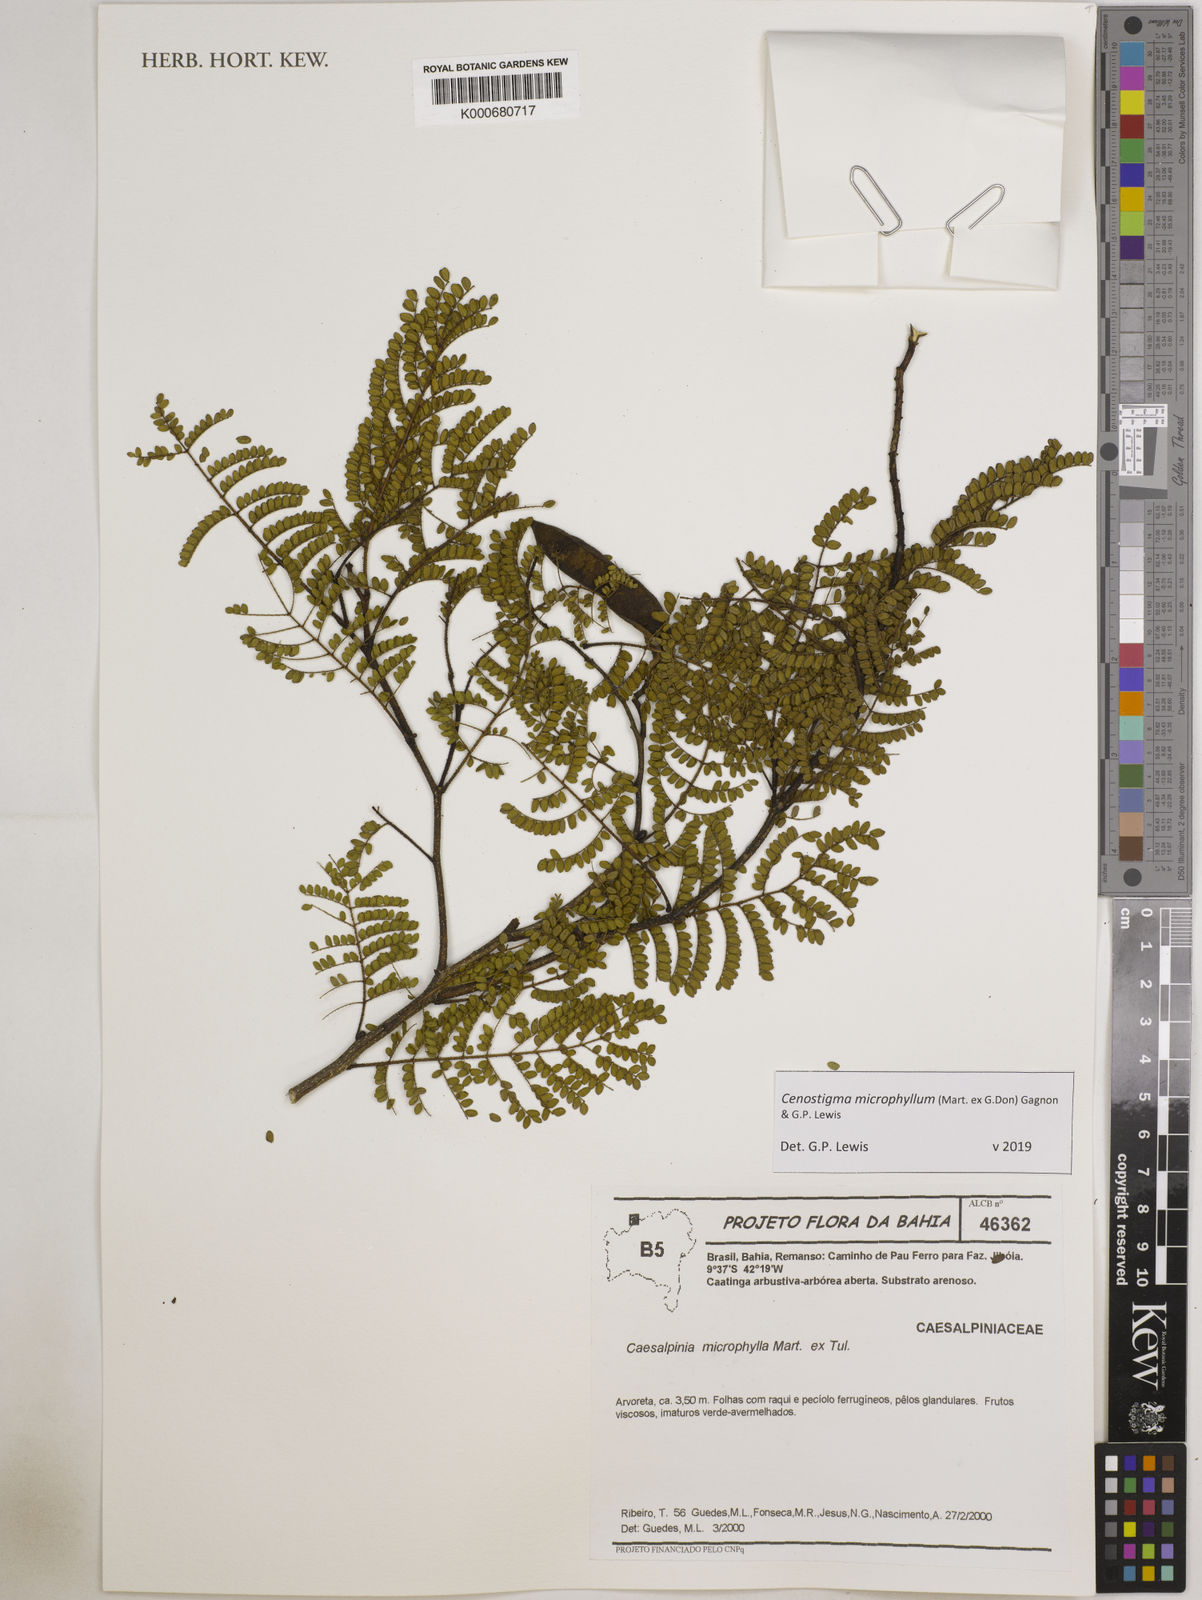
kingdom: Plantae
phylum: Tracheophyta
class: Magnoliopsida
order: Fabales
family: Fabaceae
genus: Cenostigma
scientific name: Cenostigma microphyllum
